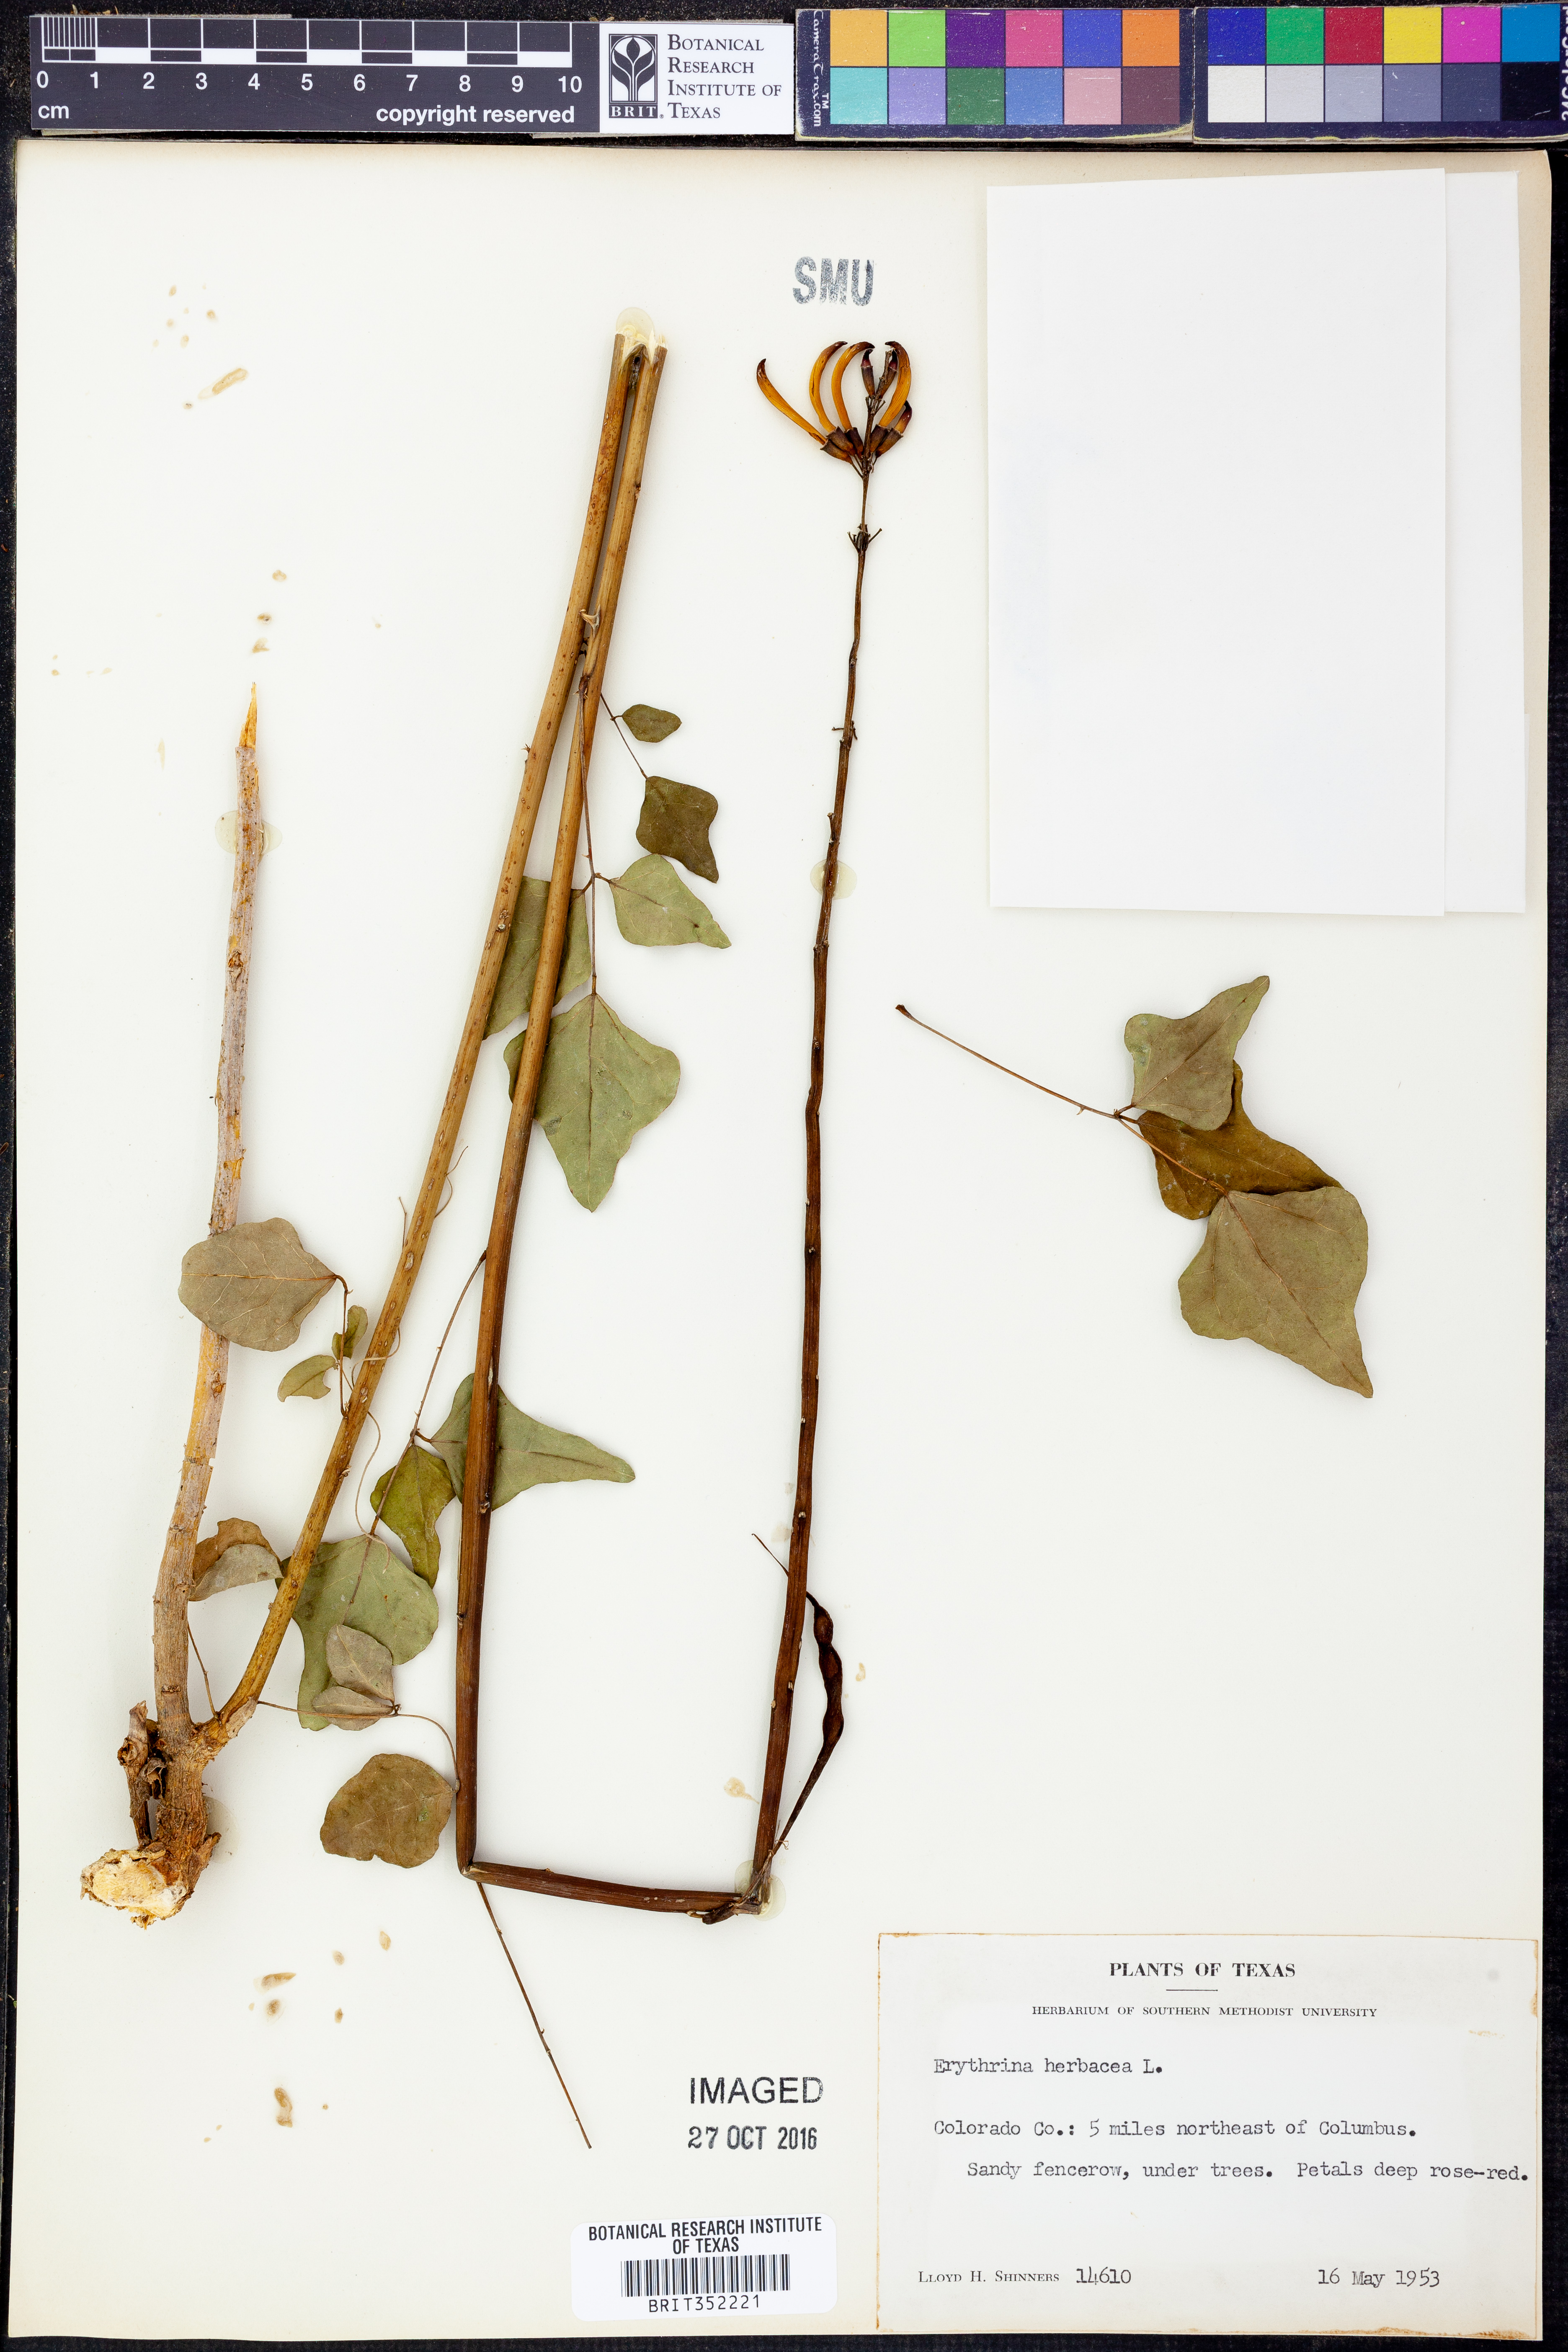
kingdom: Plantae
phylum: Tracheophyta
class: Magnoliopsida
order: Fabales
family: Fabaceae
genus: Erythrina
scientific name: Erythrina herbacea
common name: Coral-bean
